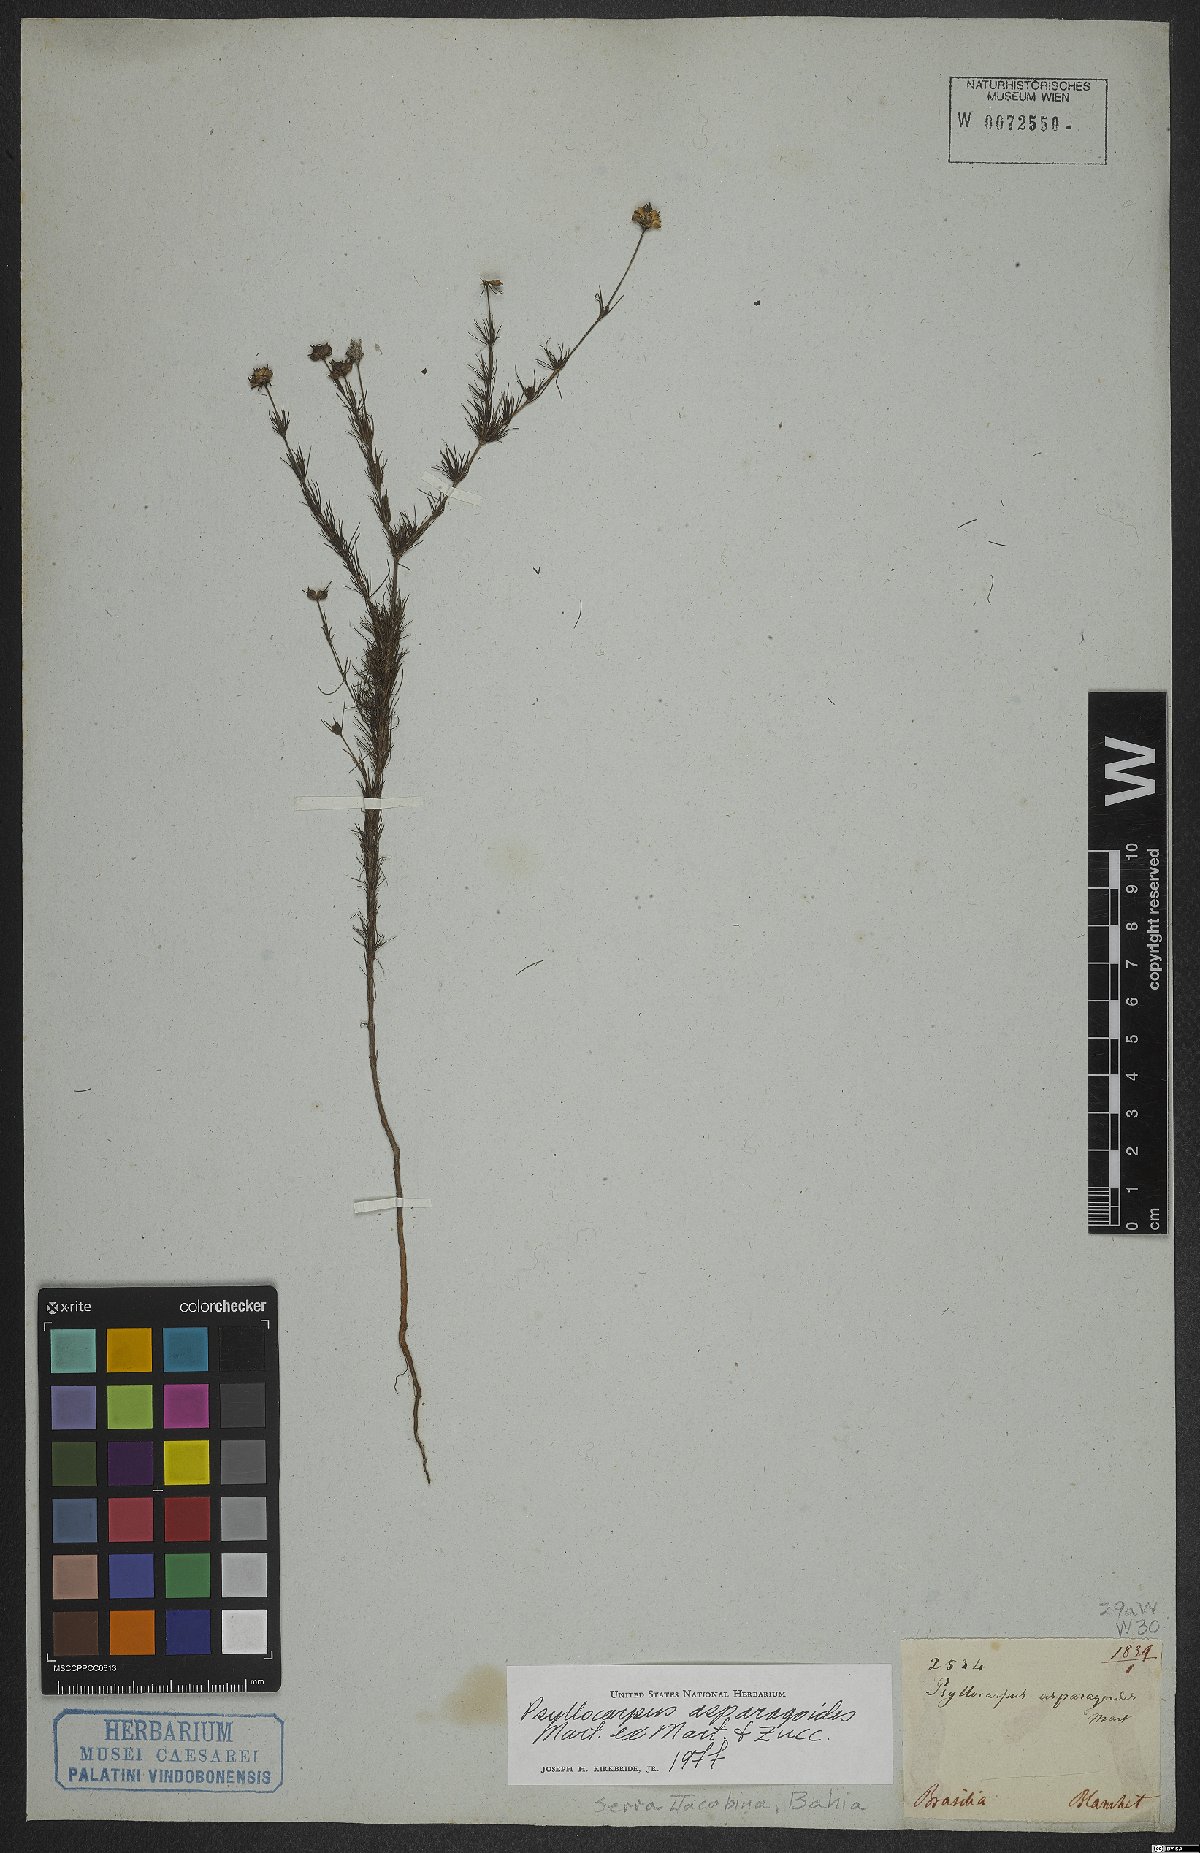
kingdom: Plantae
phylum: Tracheophyta
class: Magnoliopsida
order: Gentianales
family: Rubiaceae
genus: Psyllocarpus
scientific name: Psyllocarpus asparagoides
